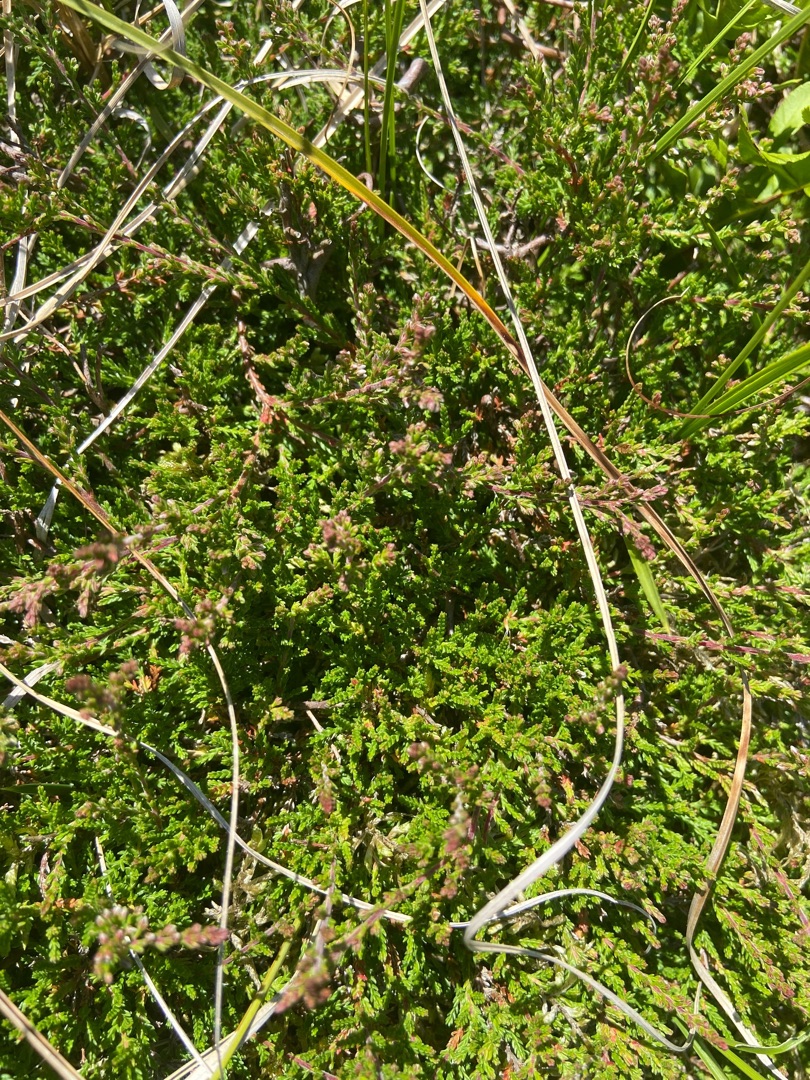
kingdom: Plantae
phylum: Tracheophyta
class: Magnoliopsida
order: Ericales
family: Ericaceae
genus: Calluna
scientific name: Calluna vulgaris
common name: Hedelyng
